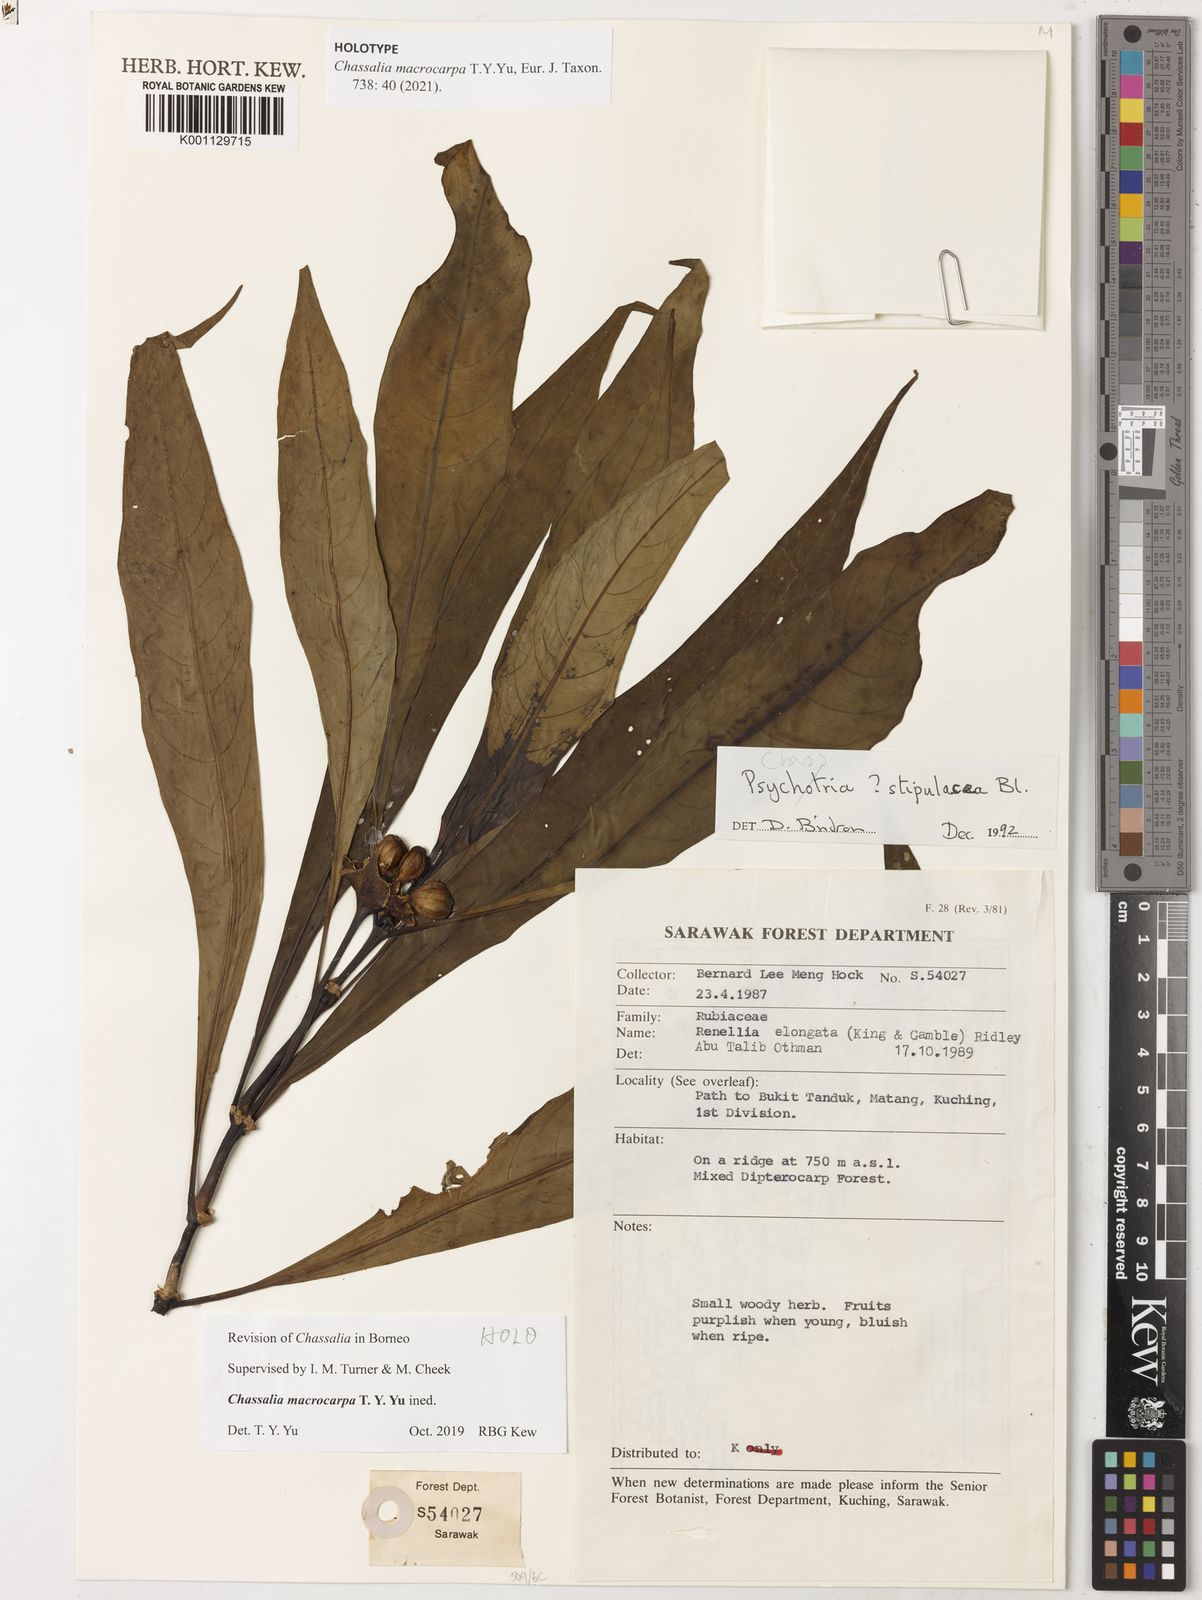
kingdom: Plantae
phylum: Tracheophyta
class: Magnoliopsida
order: Gentianales
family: Rubiaceae
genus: Chassalia
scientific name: Chassalia
